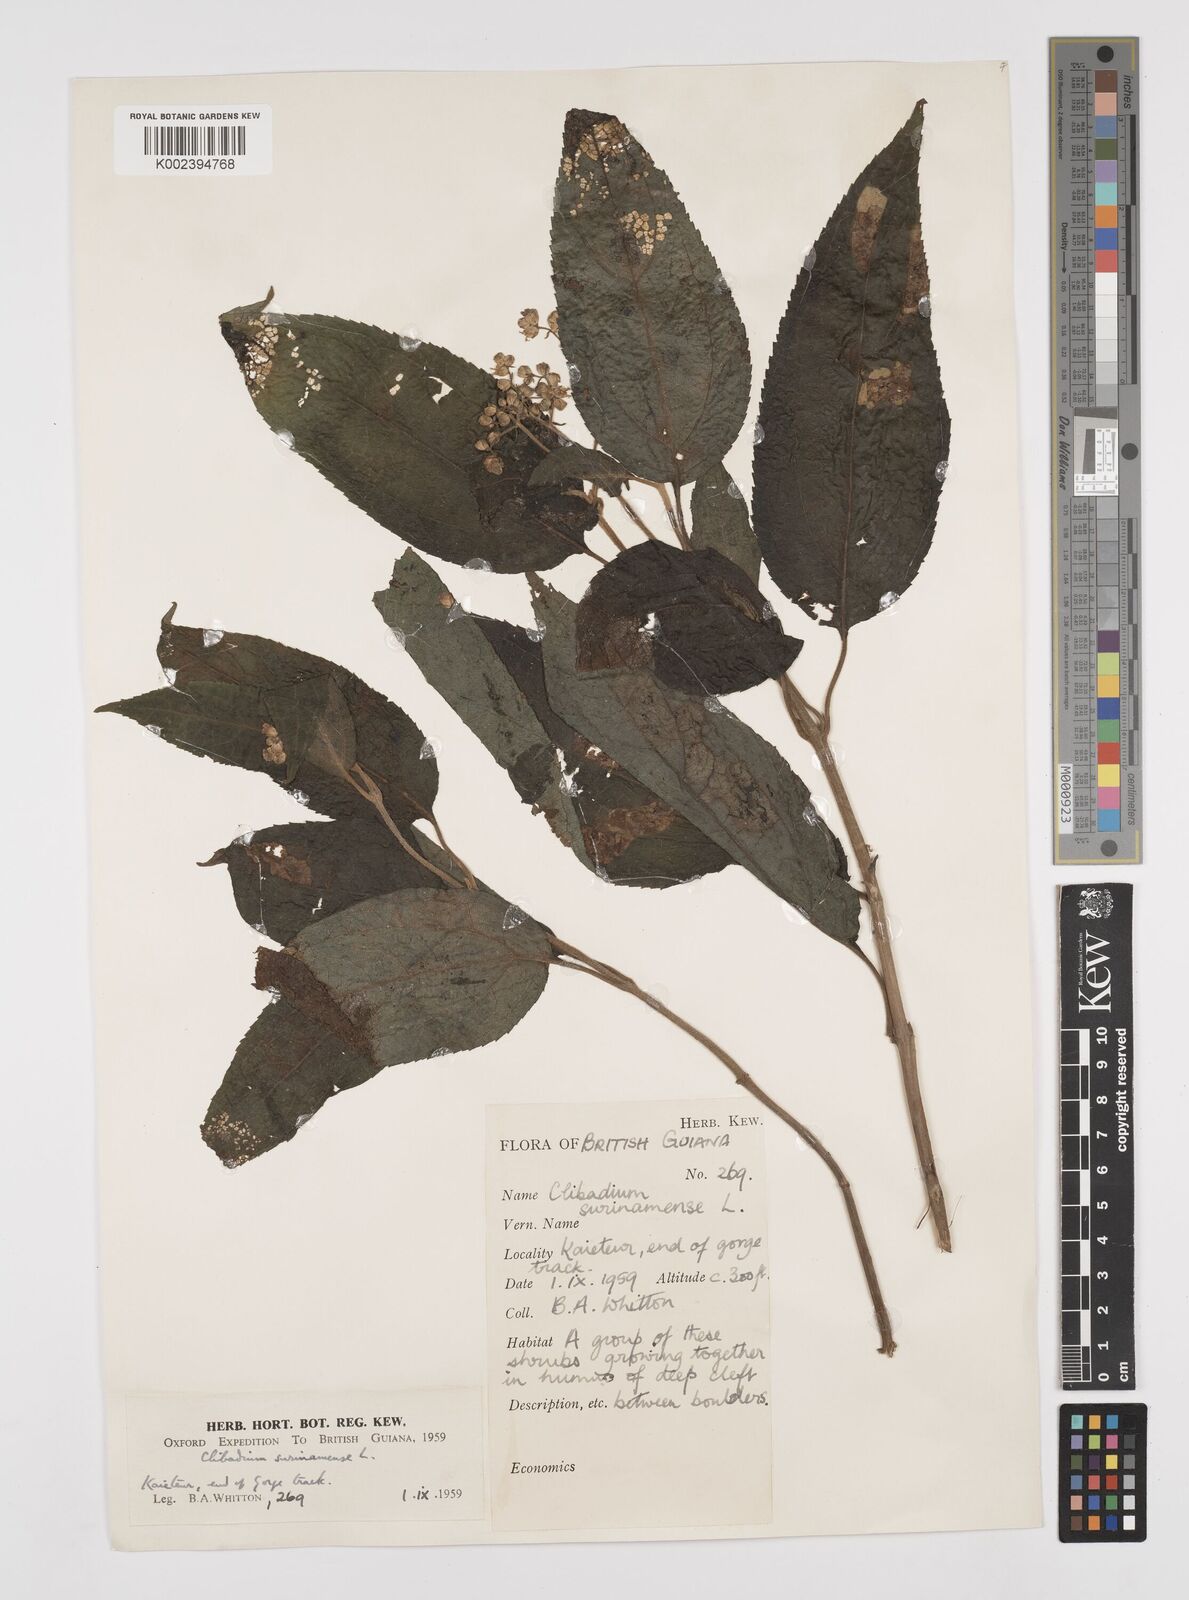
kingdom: Plantae
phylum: Tracheophyta
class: Magnoliopsida
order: Asterales
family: Asteraceae
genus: Clibadium
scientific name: Clibadium surinamense
